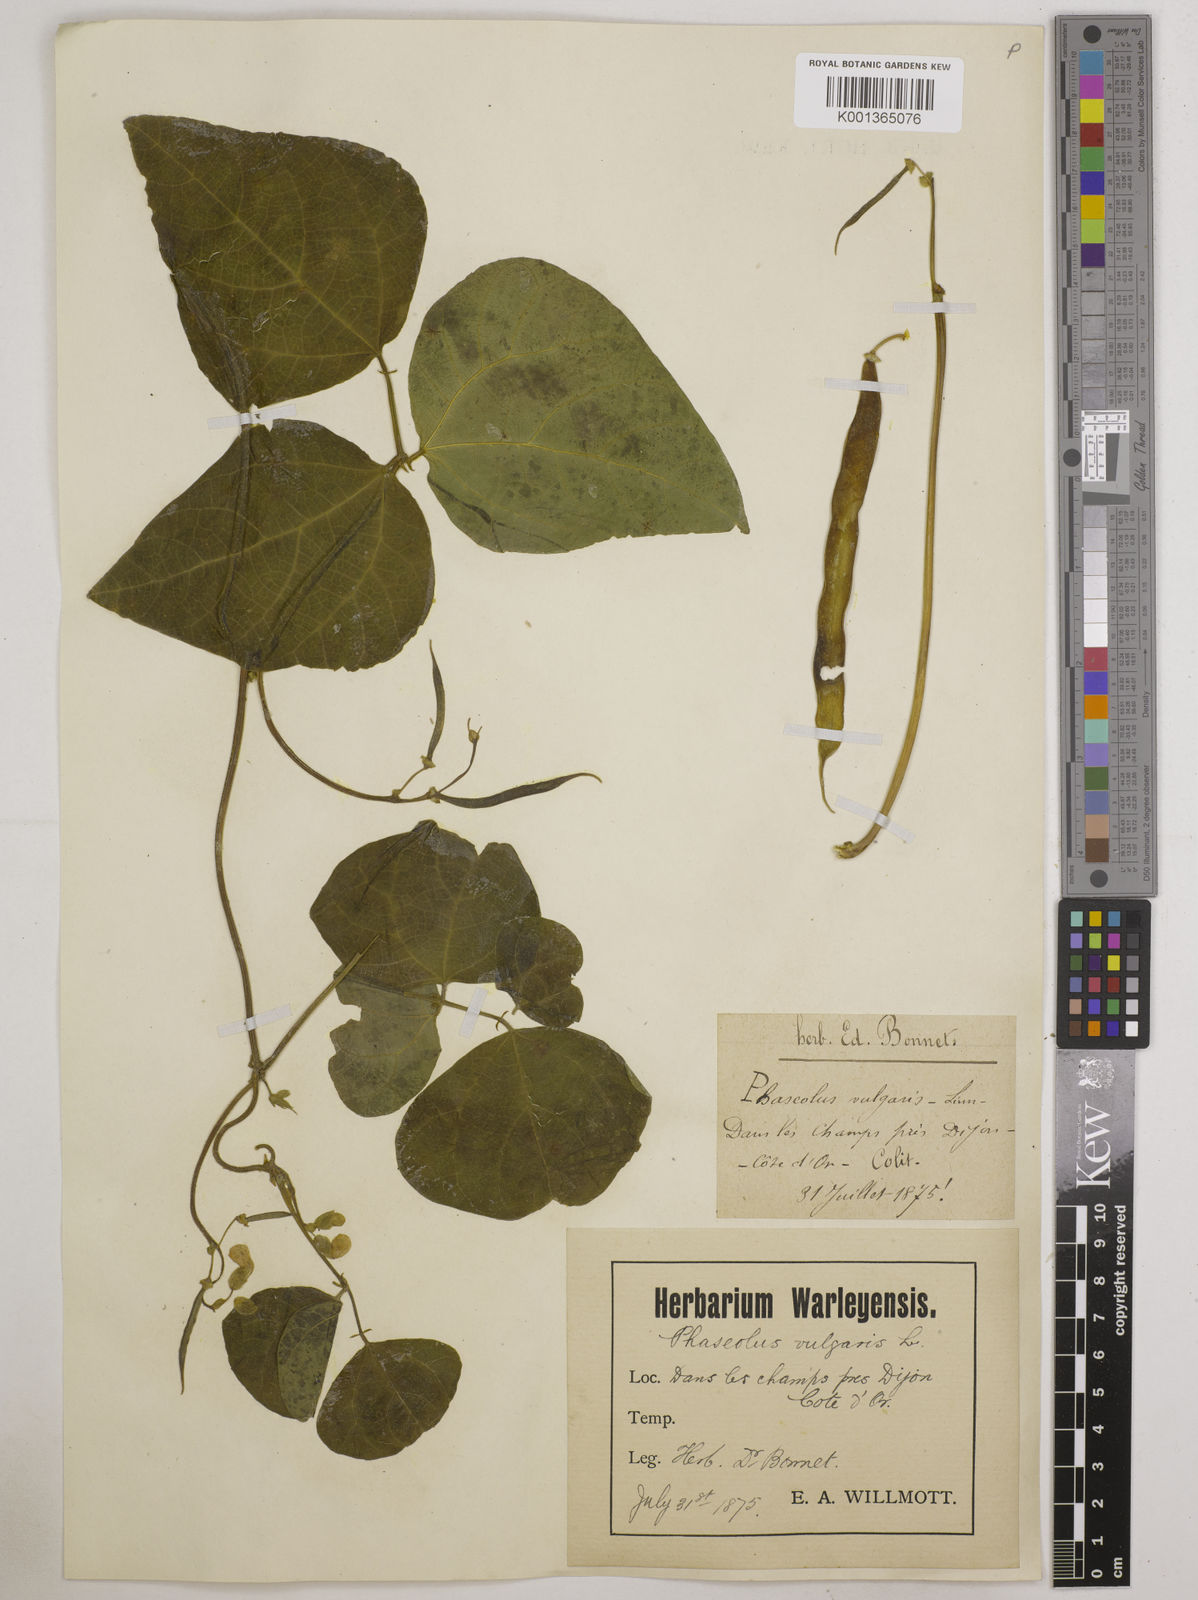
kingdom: Plantae
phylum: Tracheophyta
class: Magnoliopsida
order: Fabales
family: Fabaceae
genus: Phaseolus
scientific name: Phaseolus vulgaris
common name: Bean
